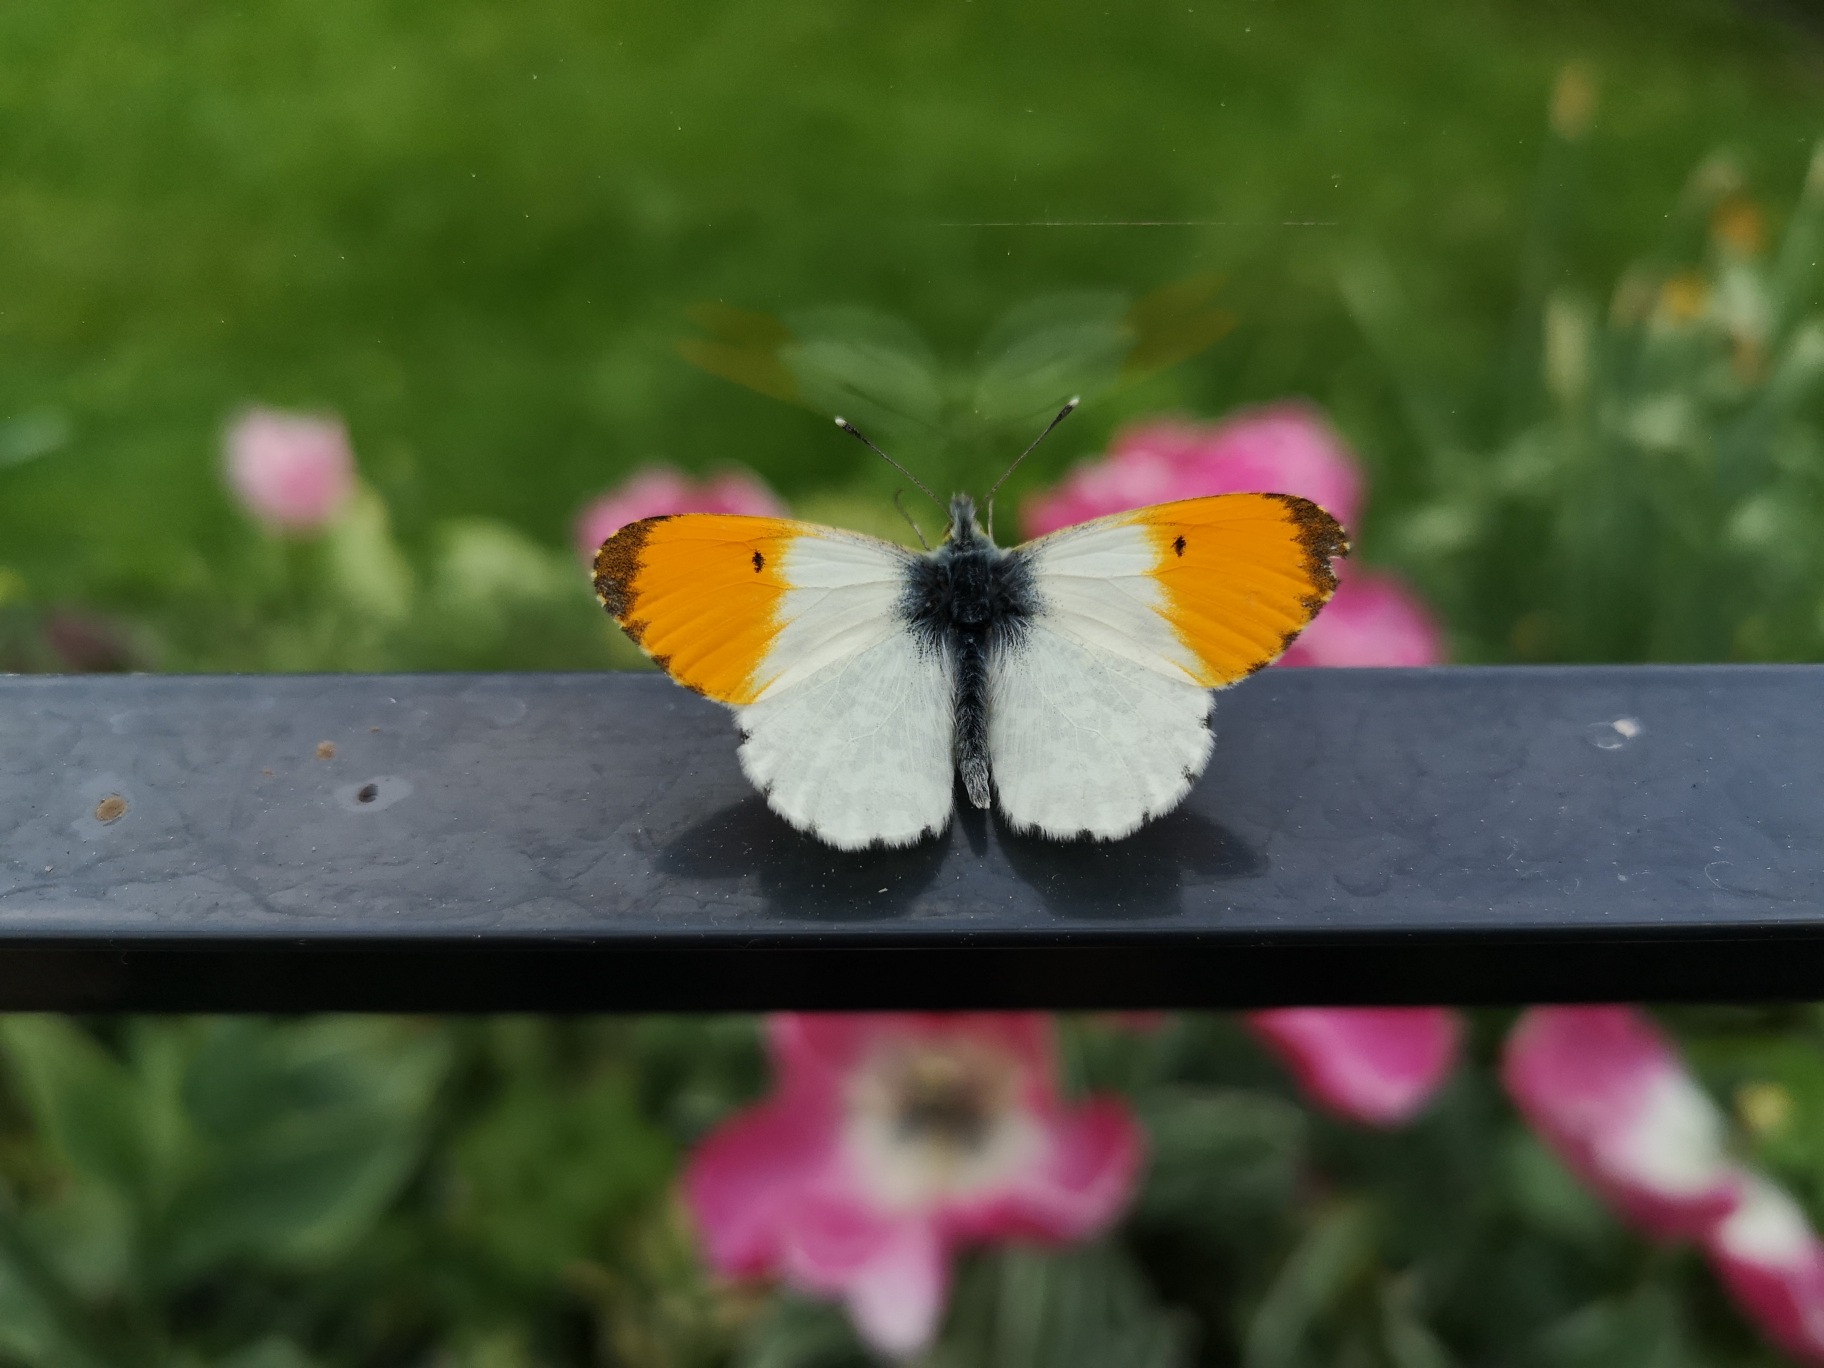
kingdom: Animalia
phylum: Arthropoda
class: Insecta
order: Lepidoptera
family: Pieridae
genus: Anthocharis
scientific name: Anthocharis cardamines
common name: Aurora
